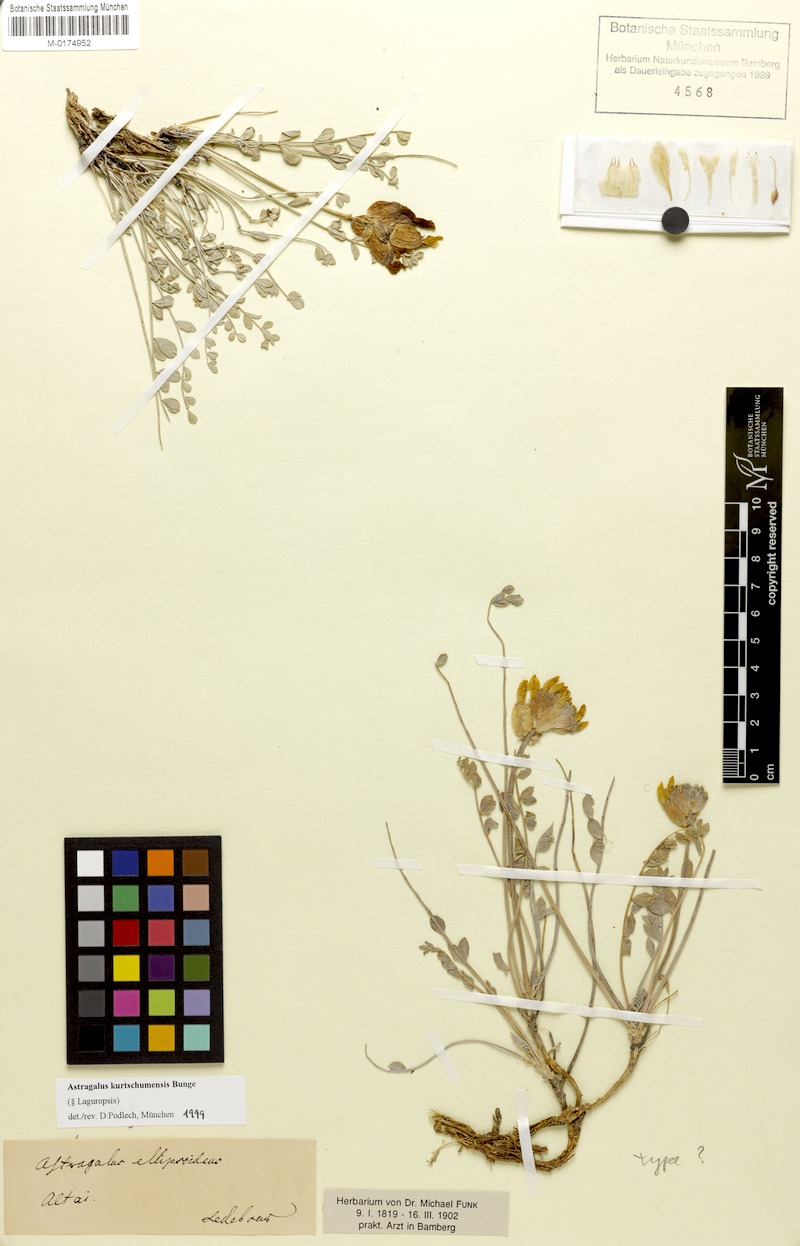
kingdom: Plantae
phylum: Tracheophyta
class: Magnoliopsida
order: Fabales
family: Fabaceae
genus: Astragalus
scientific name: Astragalus kurtschumensis
